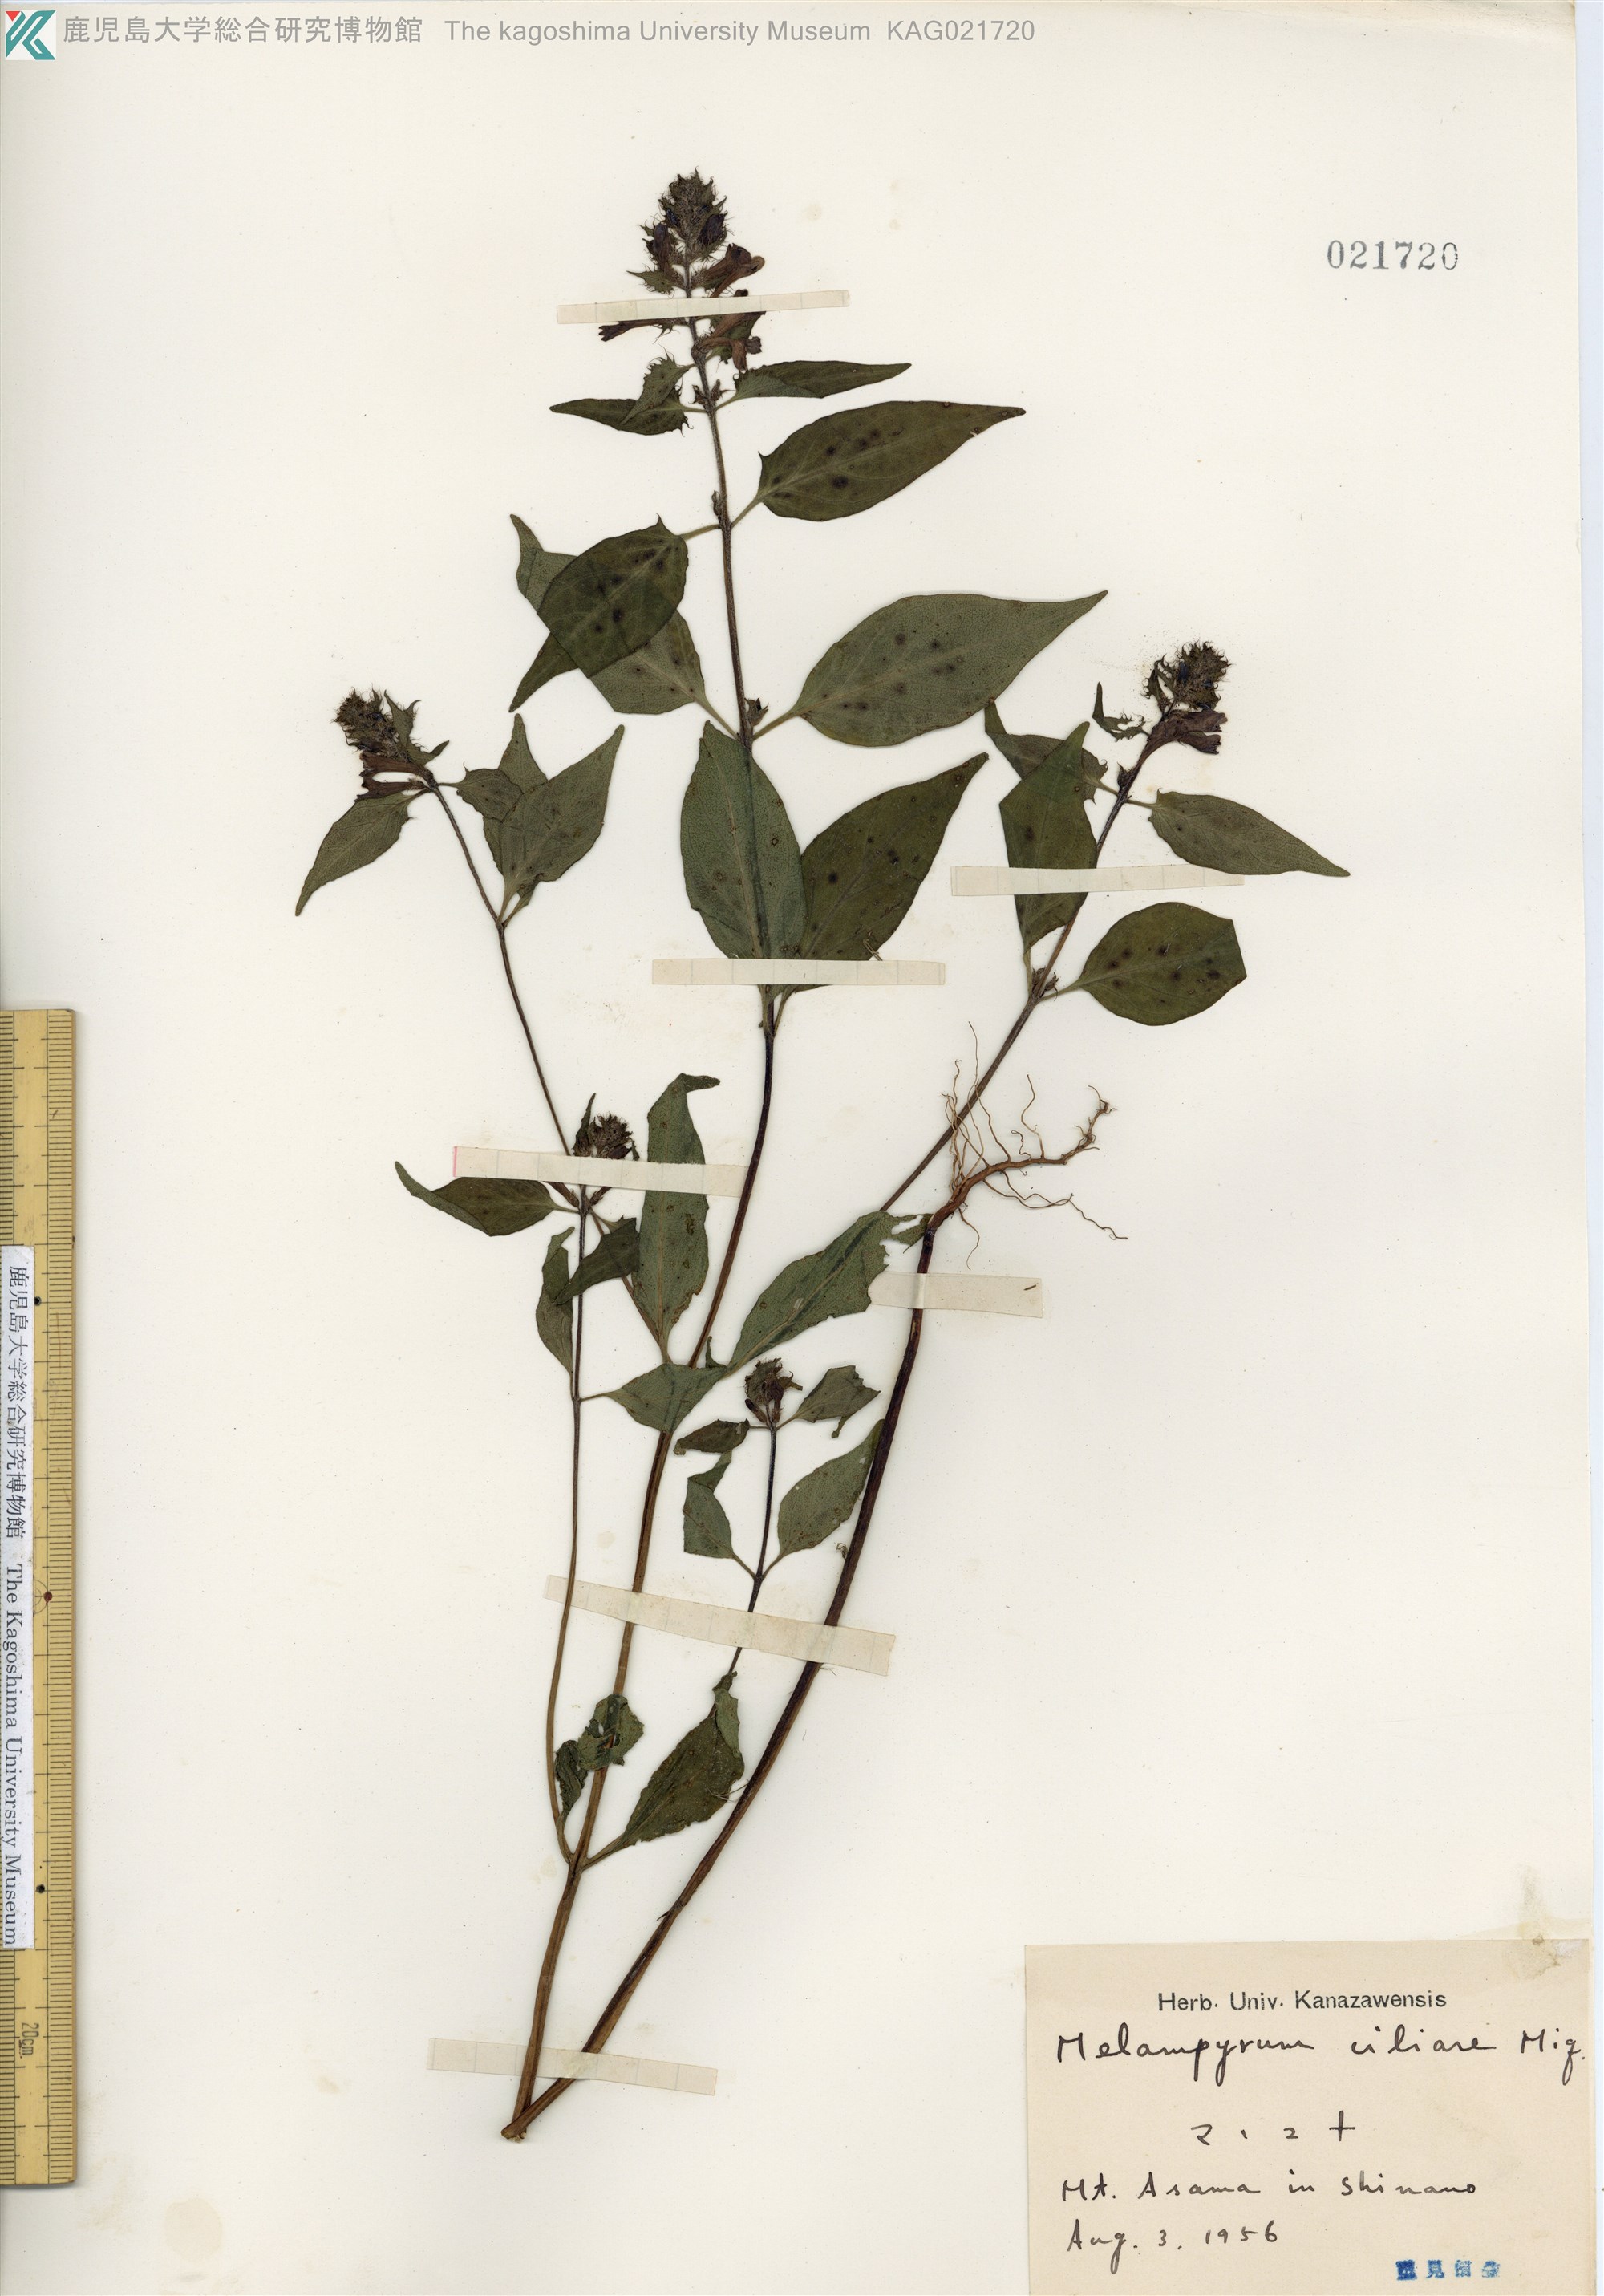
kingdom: Plantae
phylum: Tracheophyta
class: Magnoliopsida
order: Lamiales
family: Orobanchaceae
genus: Melampyrum
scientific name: Melampyrum roseum
